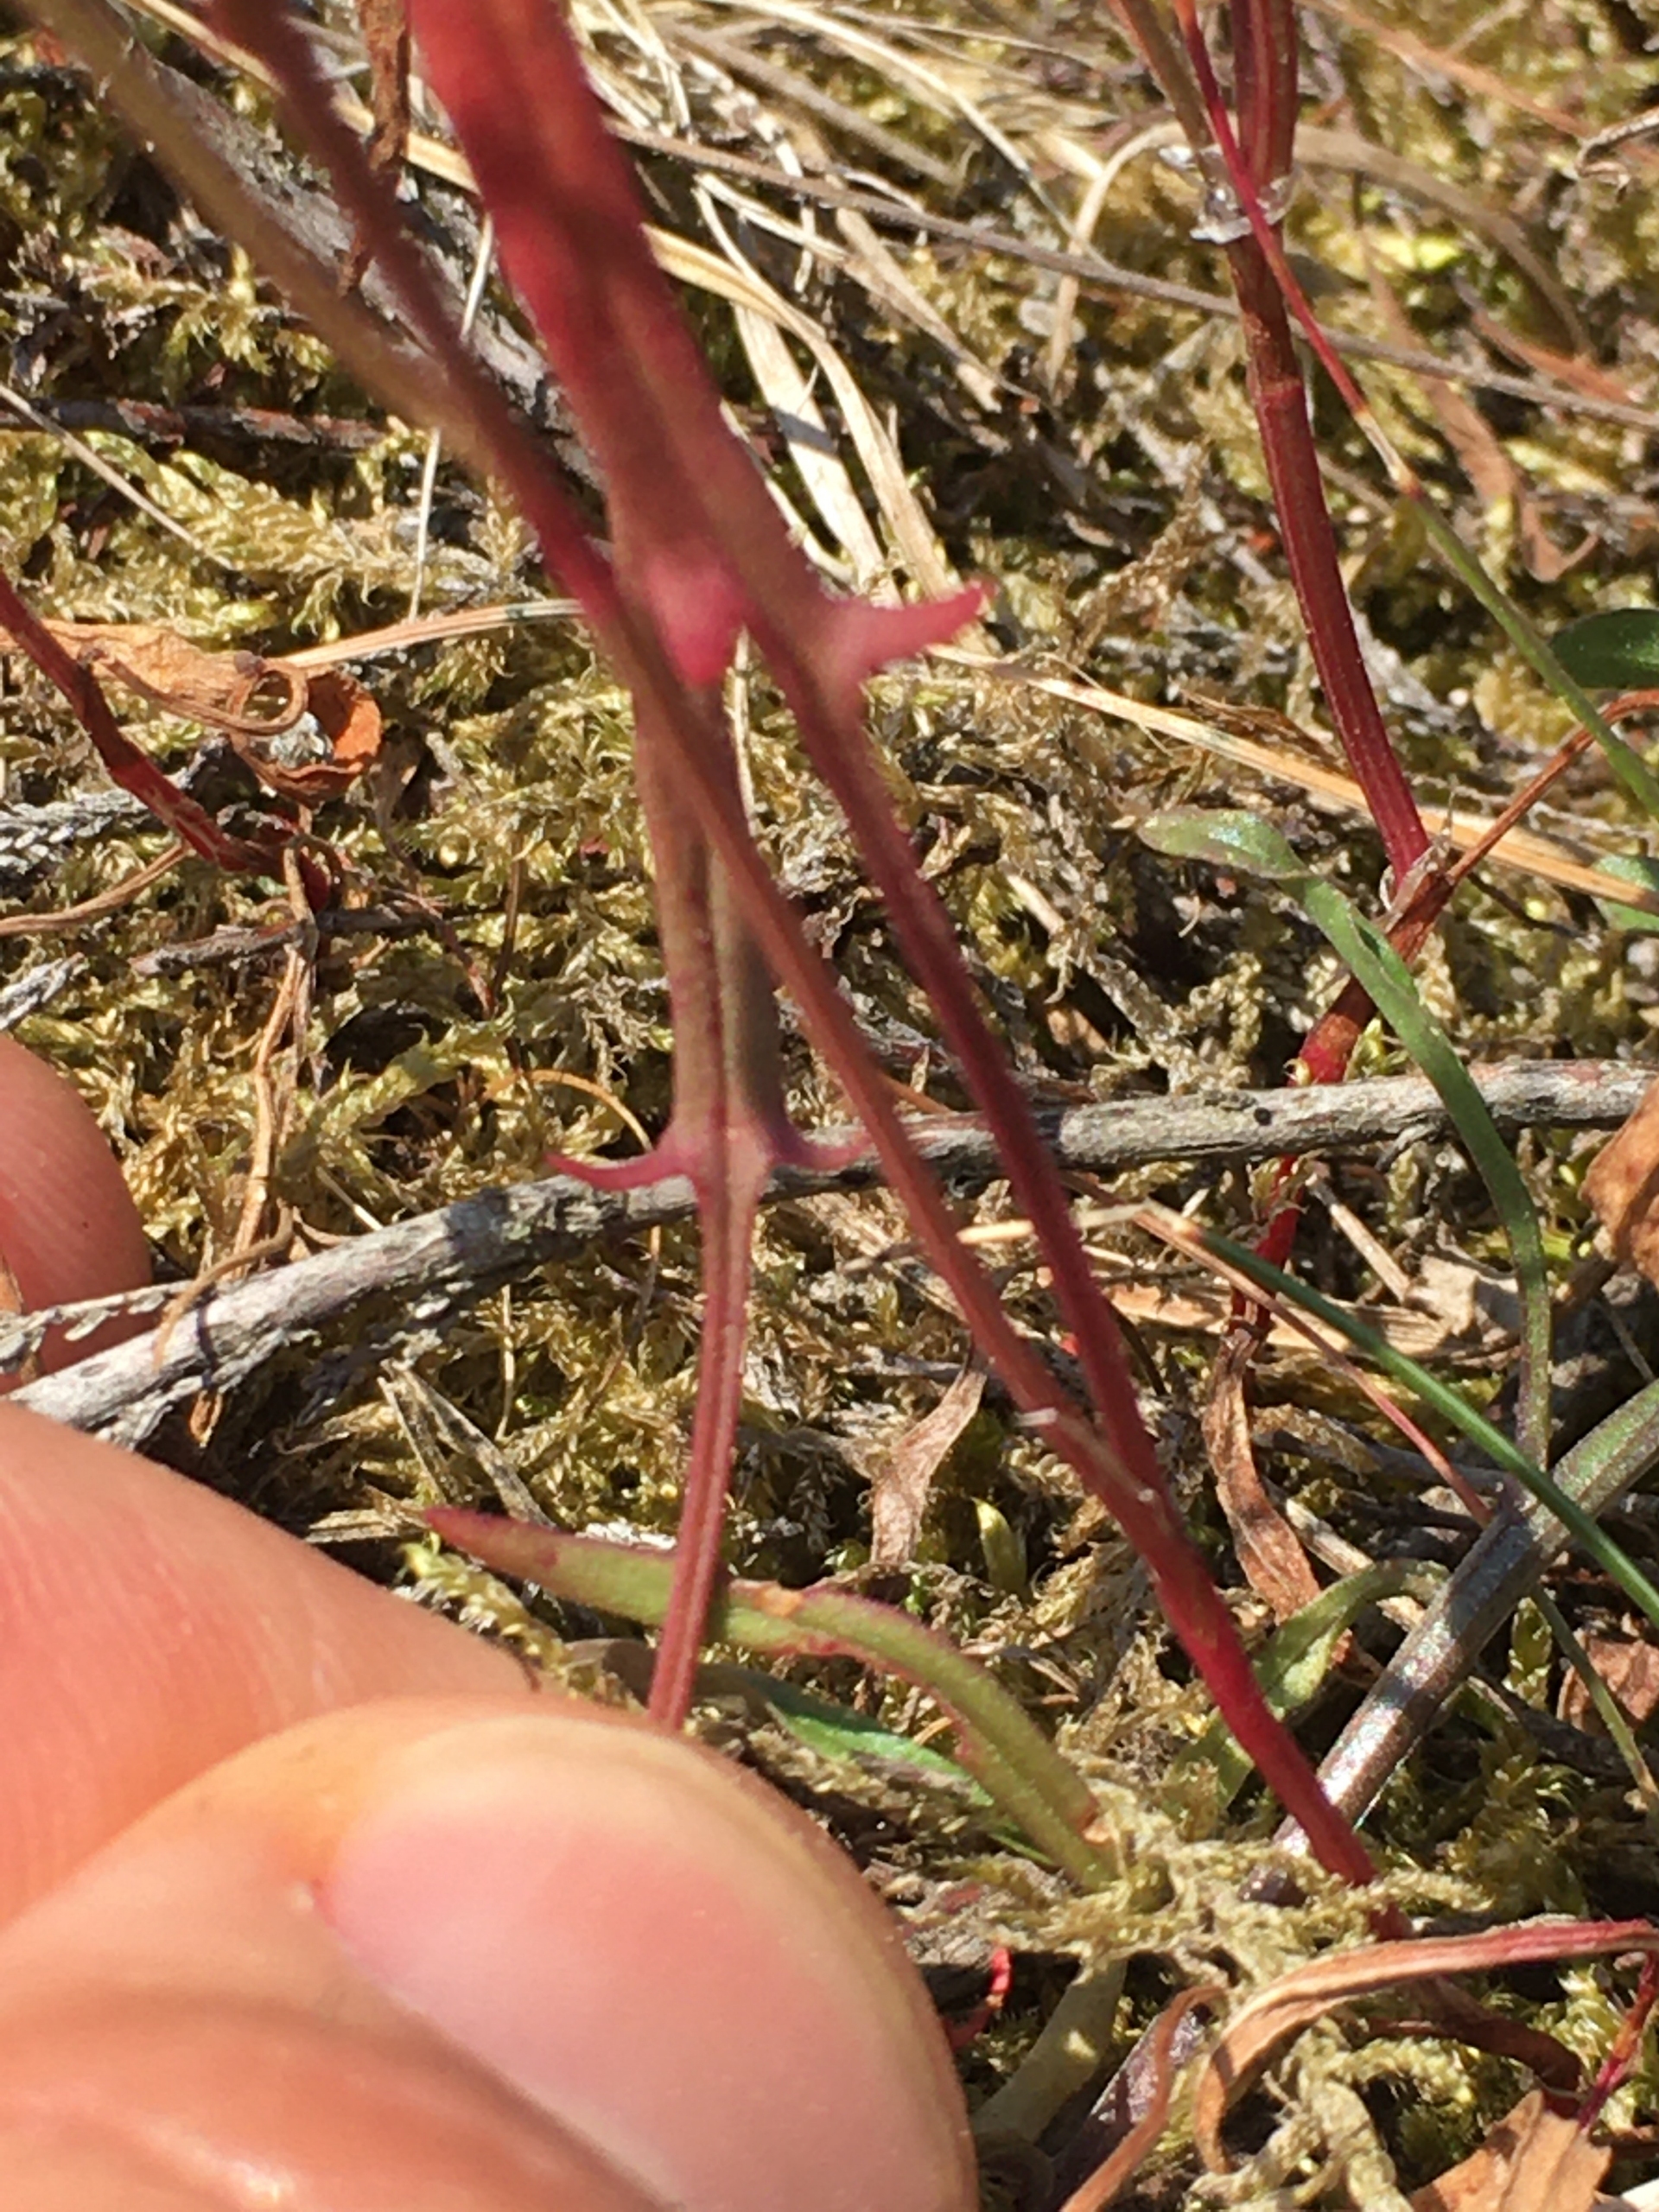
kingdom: Plantae
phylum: Tracheophyta
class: Magnoliopsida
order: Caryophyllales
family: Polygonaceae
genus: Rumex
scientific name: Rumex acetosella
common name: Rødknæ
